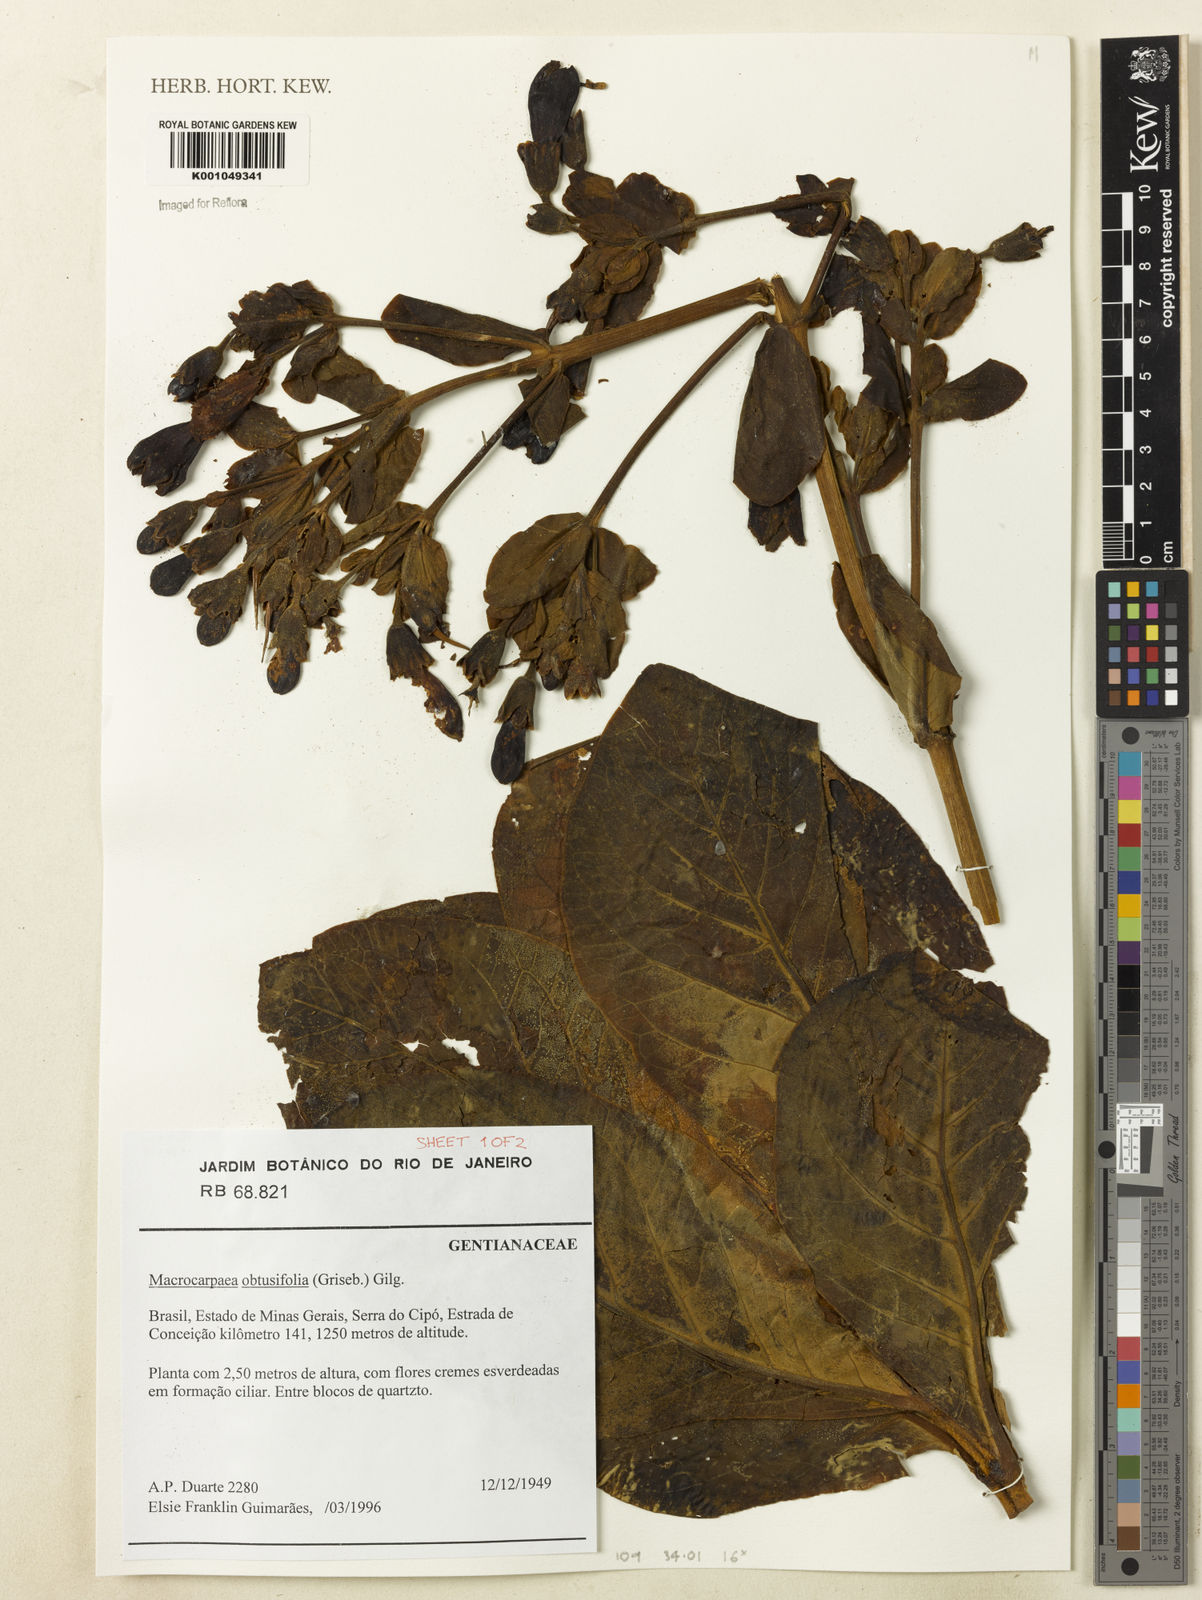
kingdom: Plantae
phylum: Tracheophyta
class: Magnoliopsida
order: Gentianales
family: Gentianaceae
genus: Macrocarpaea
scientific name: Macrocarpaea obtusifolia
